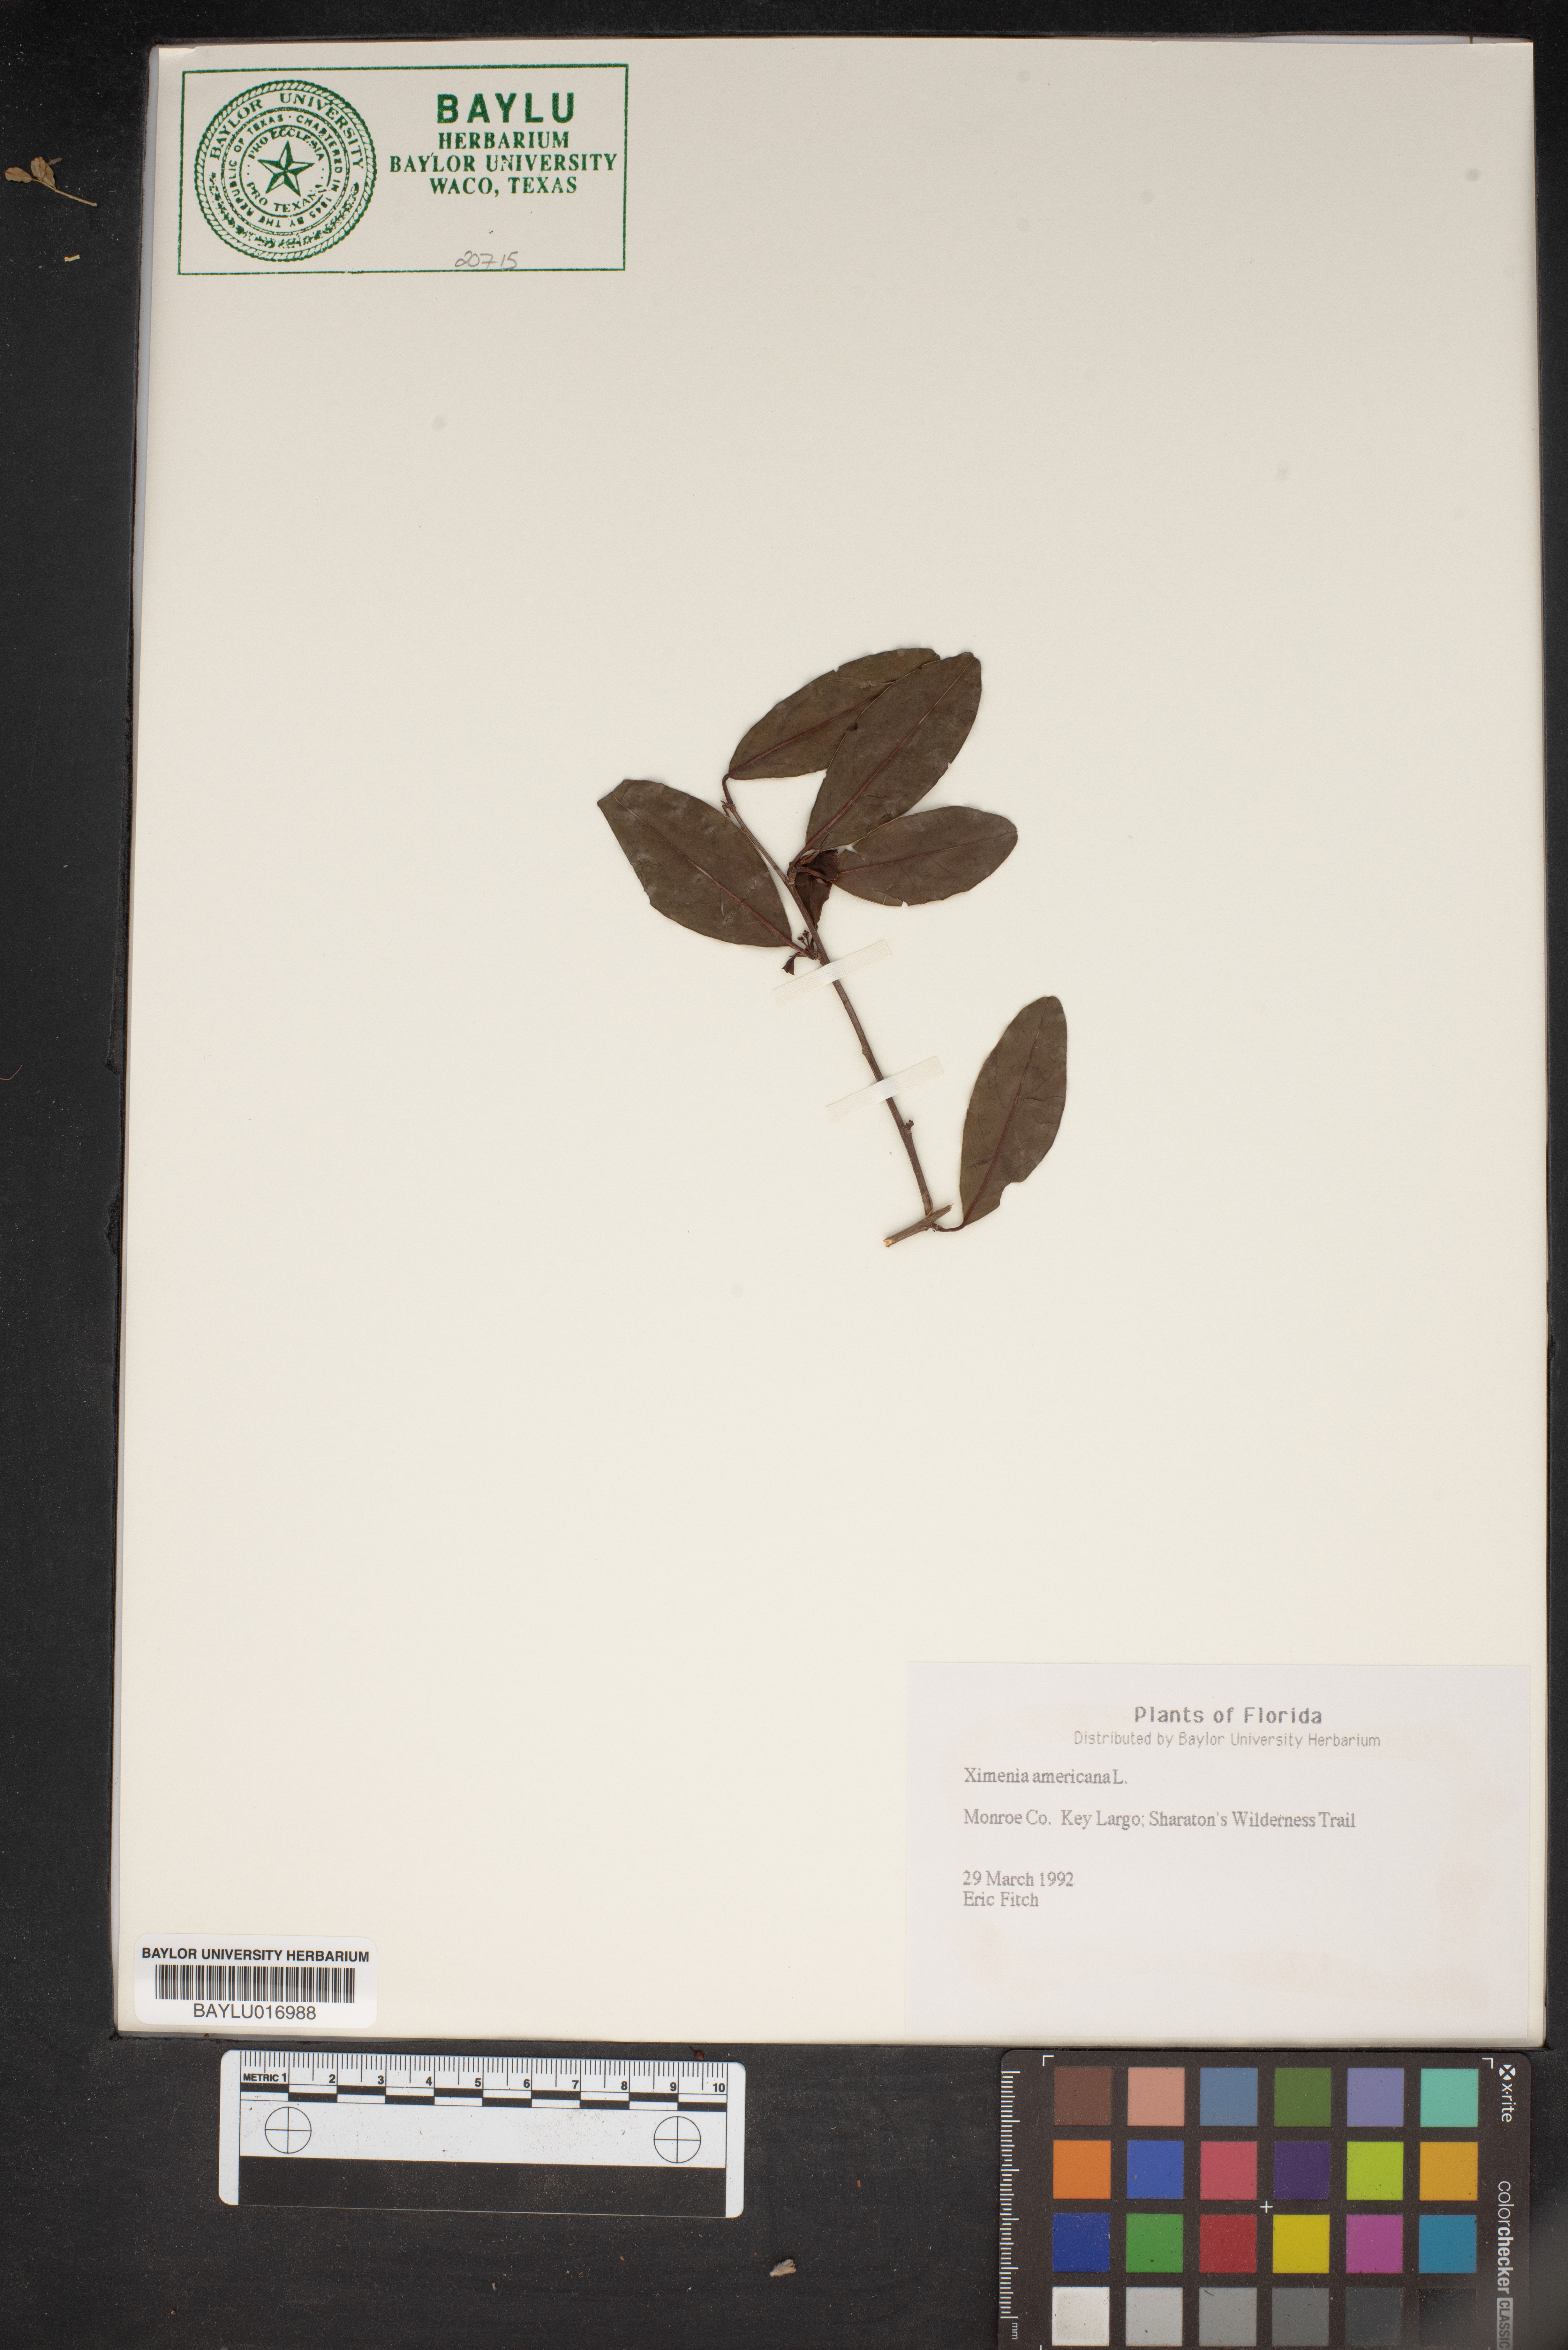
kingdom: Plantae
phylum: Tracheophyta
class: Magnoliopsida
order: Santalales
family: Ximeniaceae
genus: Ximenia
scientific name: Ximenia americana
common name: Tallowwood
